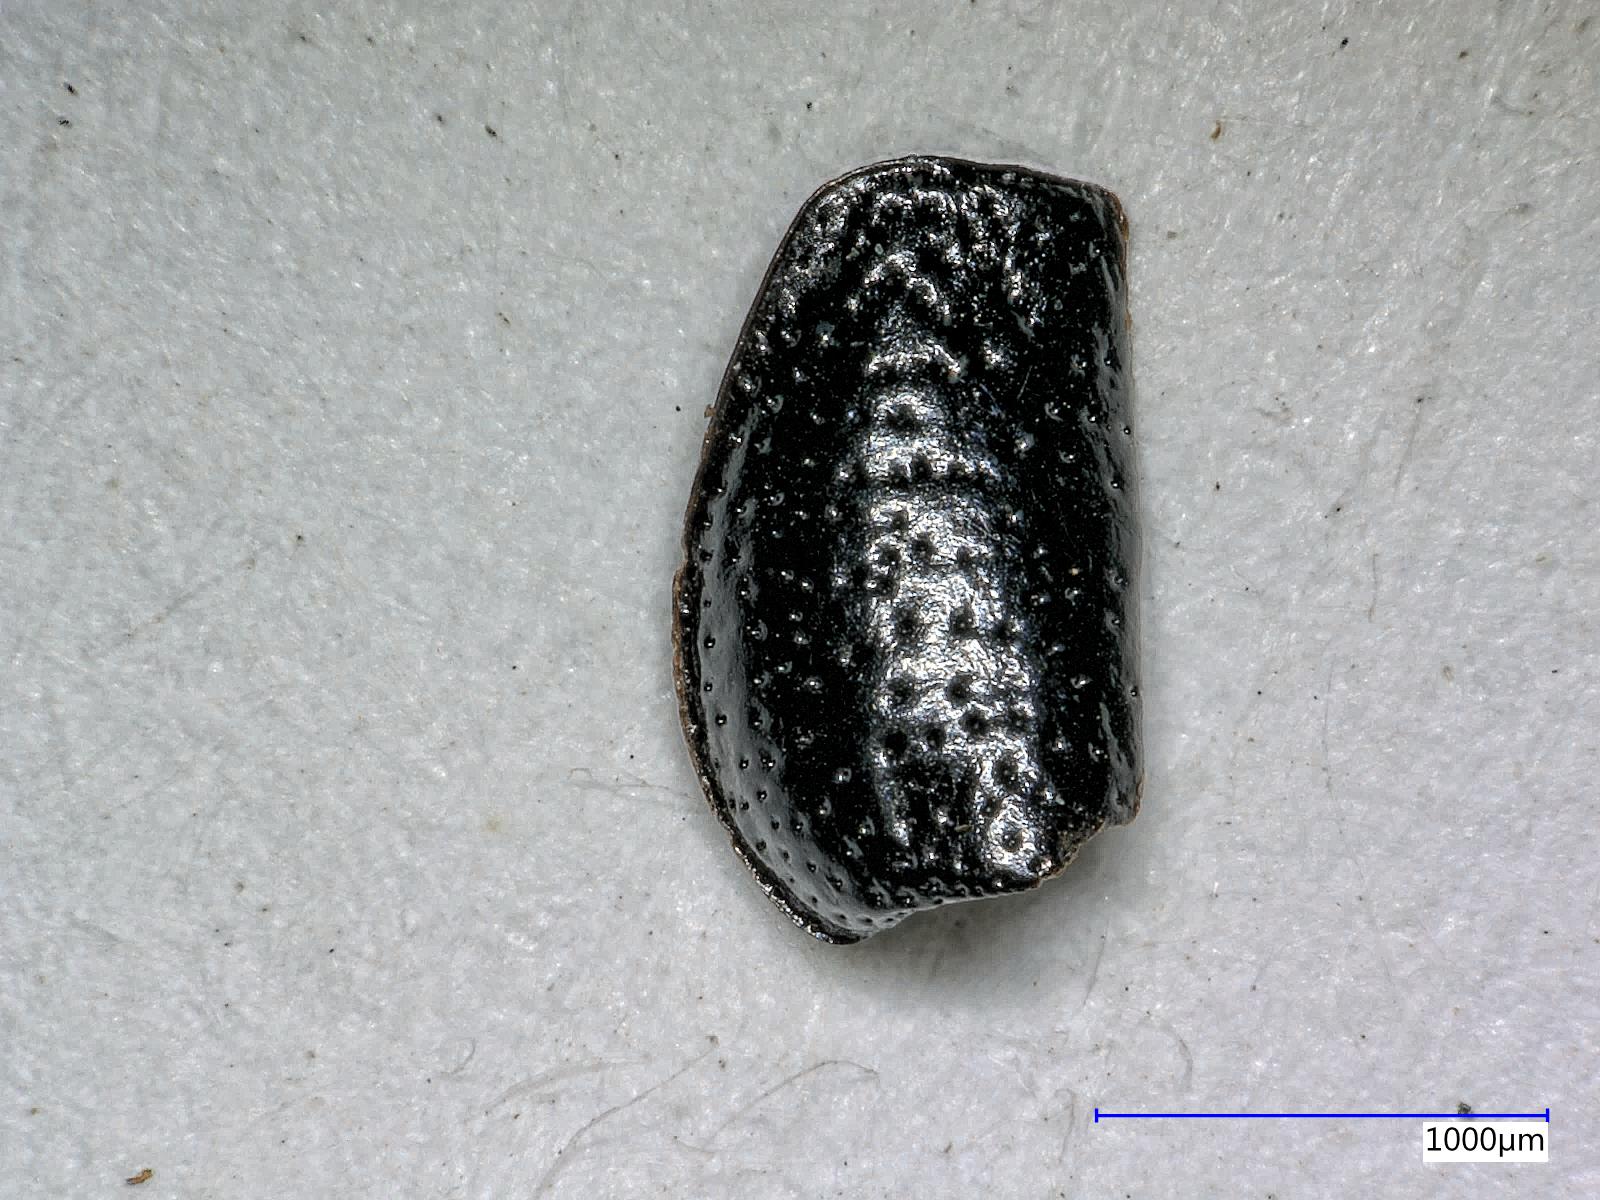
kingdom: Animalia
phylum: Arthropoda
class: Insecta
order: Coleoptera
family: Carabidae
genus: Dicheirus
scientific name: Dicheirus dilatatus
